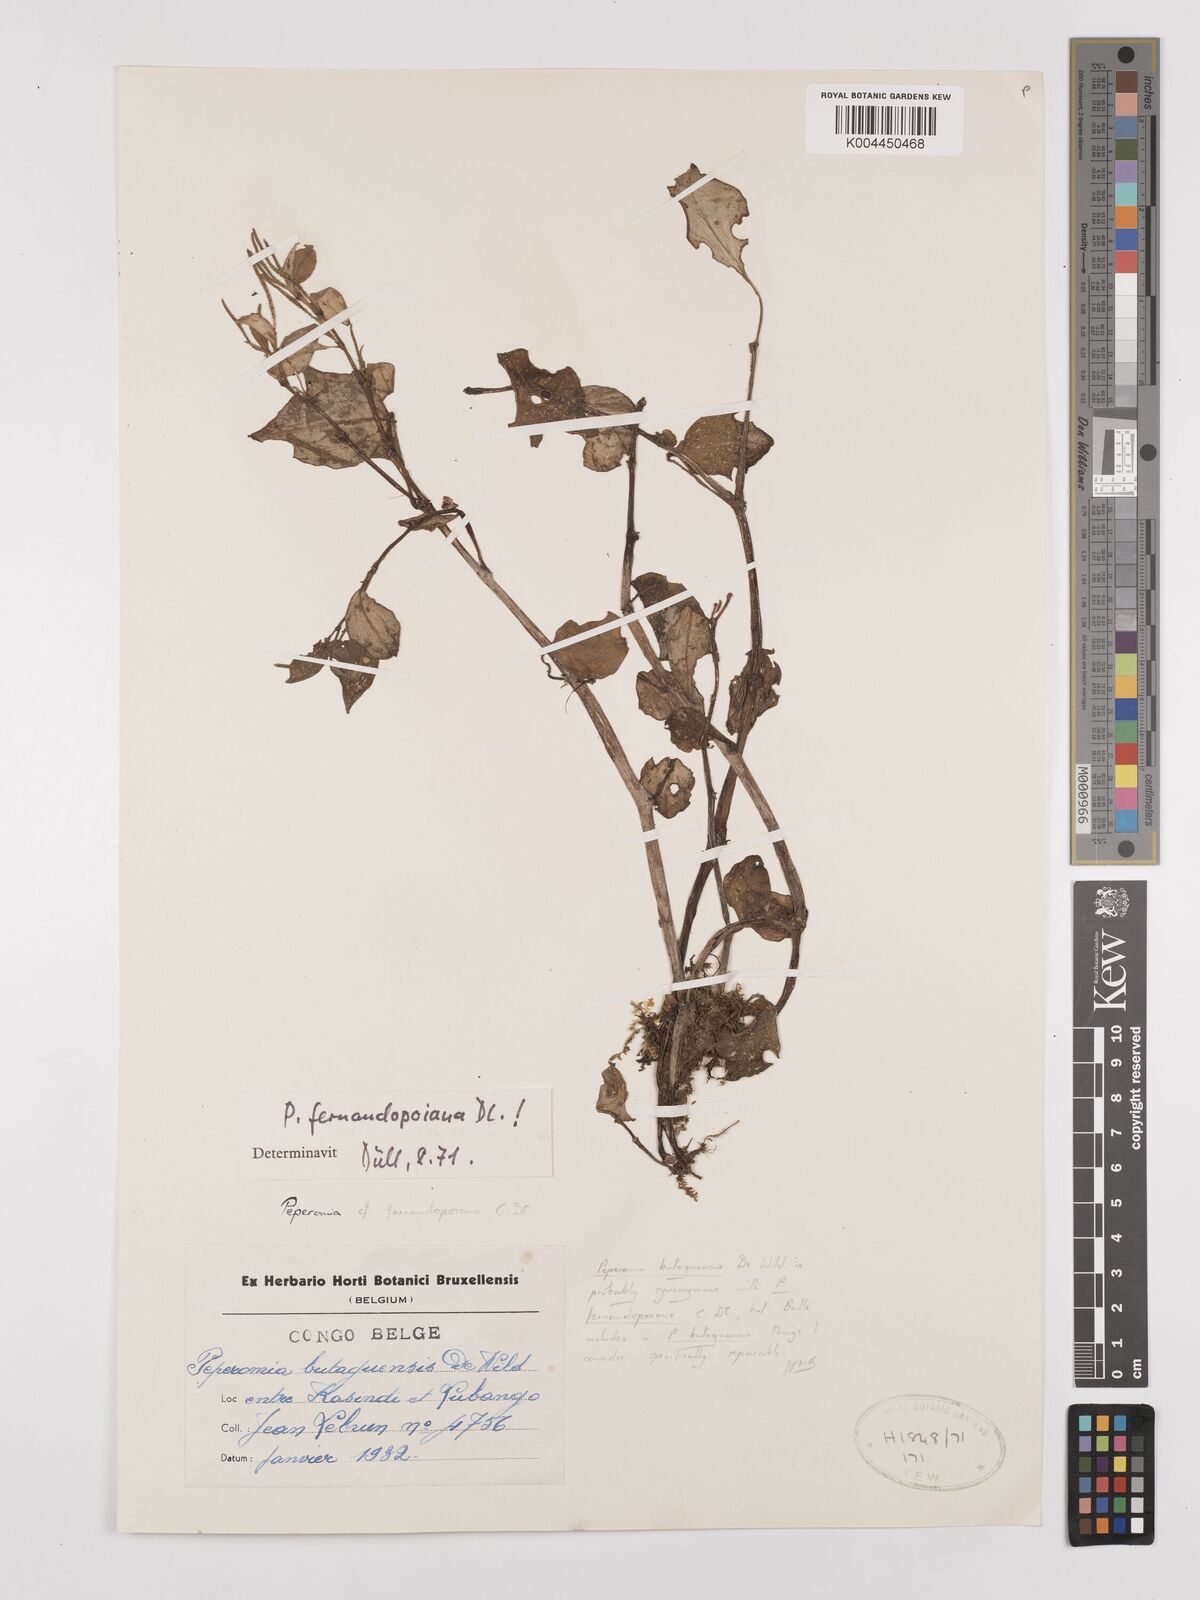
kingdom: Plantae
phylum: Tracheophyta
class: Magnoliopsida
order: Piperales
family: Piperaceae
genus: Peperomia
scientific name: Peperomia fernandopoiana
